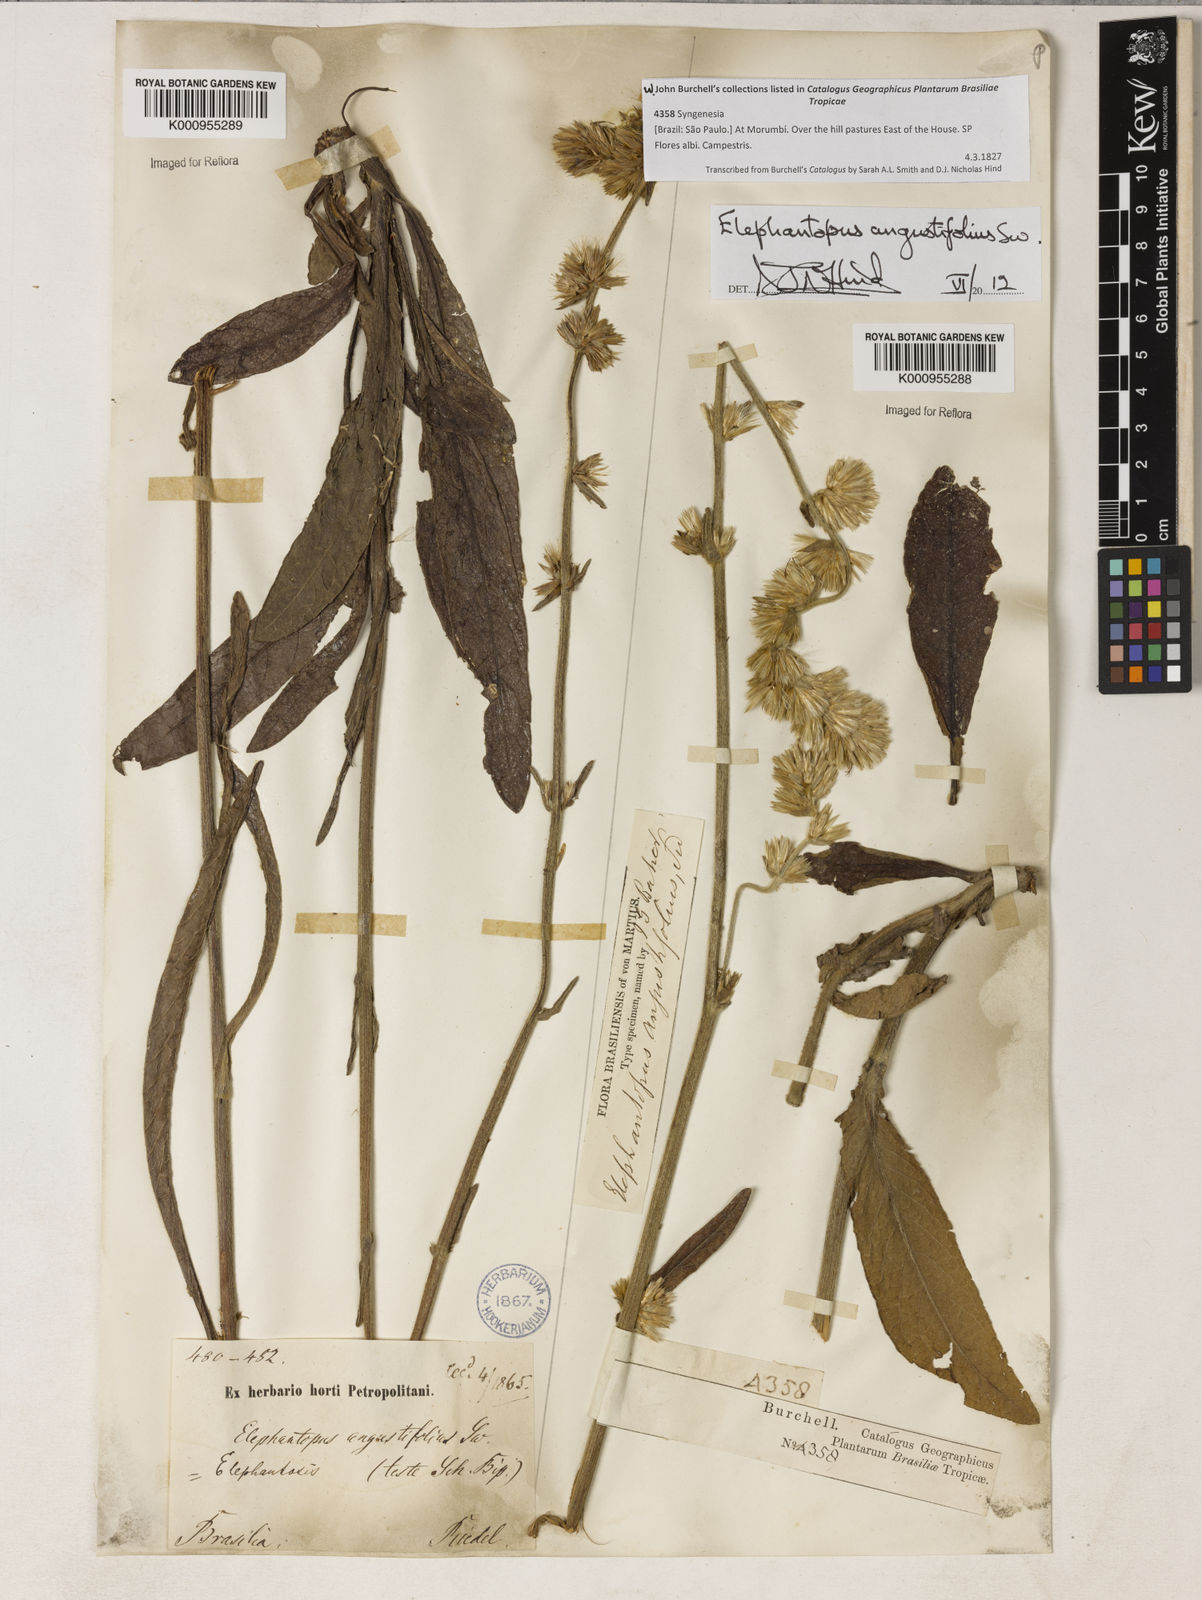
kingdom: Plantae
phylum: Tracheophyta
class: Magnoliopsida
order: Asterales
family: Asteraceae
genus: Orthopappus
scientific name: Orthopappus angustifolius
